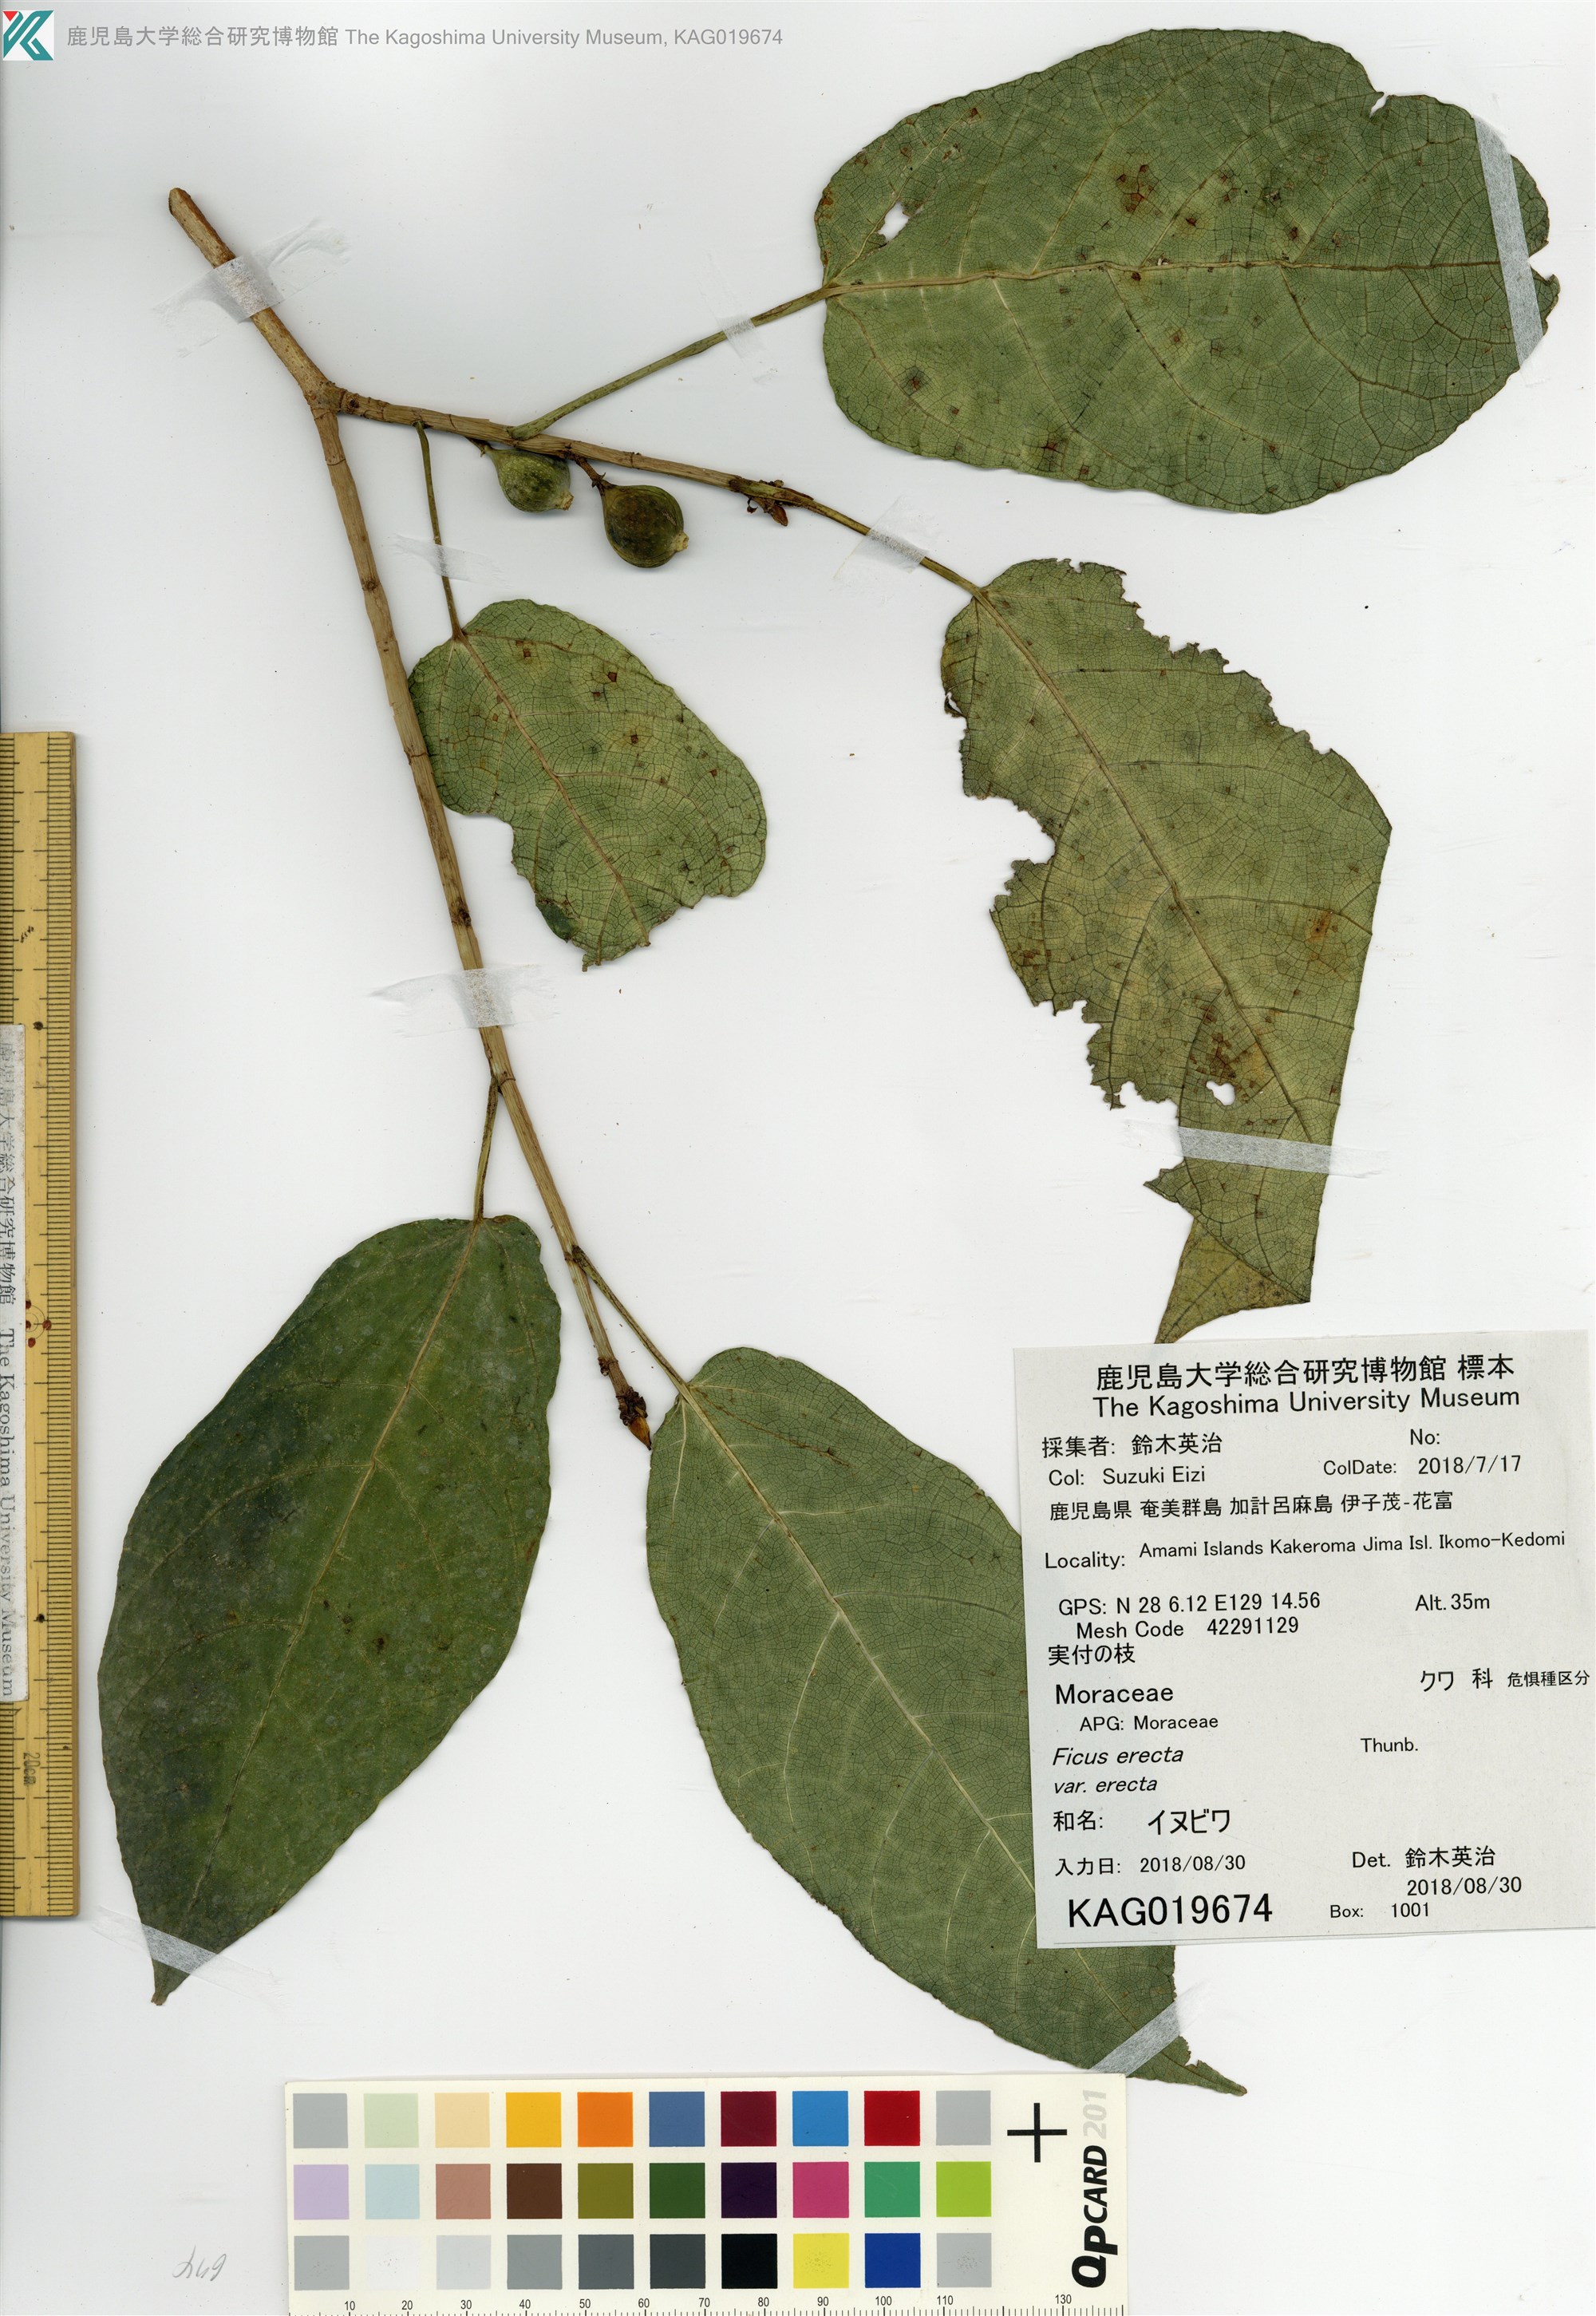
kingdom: Plantae
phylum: Tracheophyta
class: Magnoliopsida
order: Rosales
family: Moraceae
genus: Ficus
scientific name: Ficus erecta
